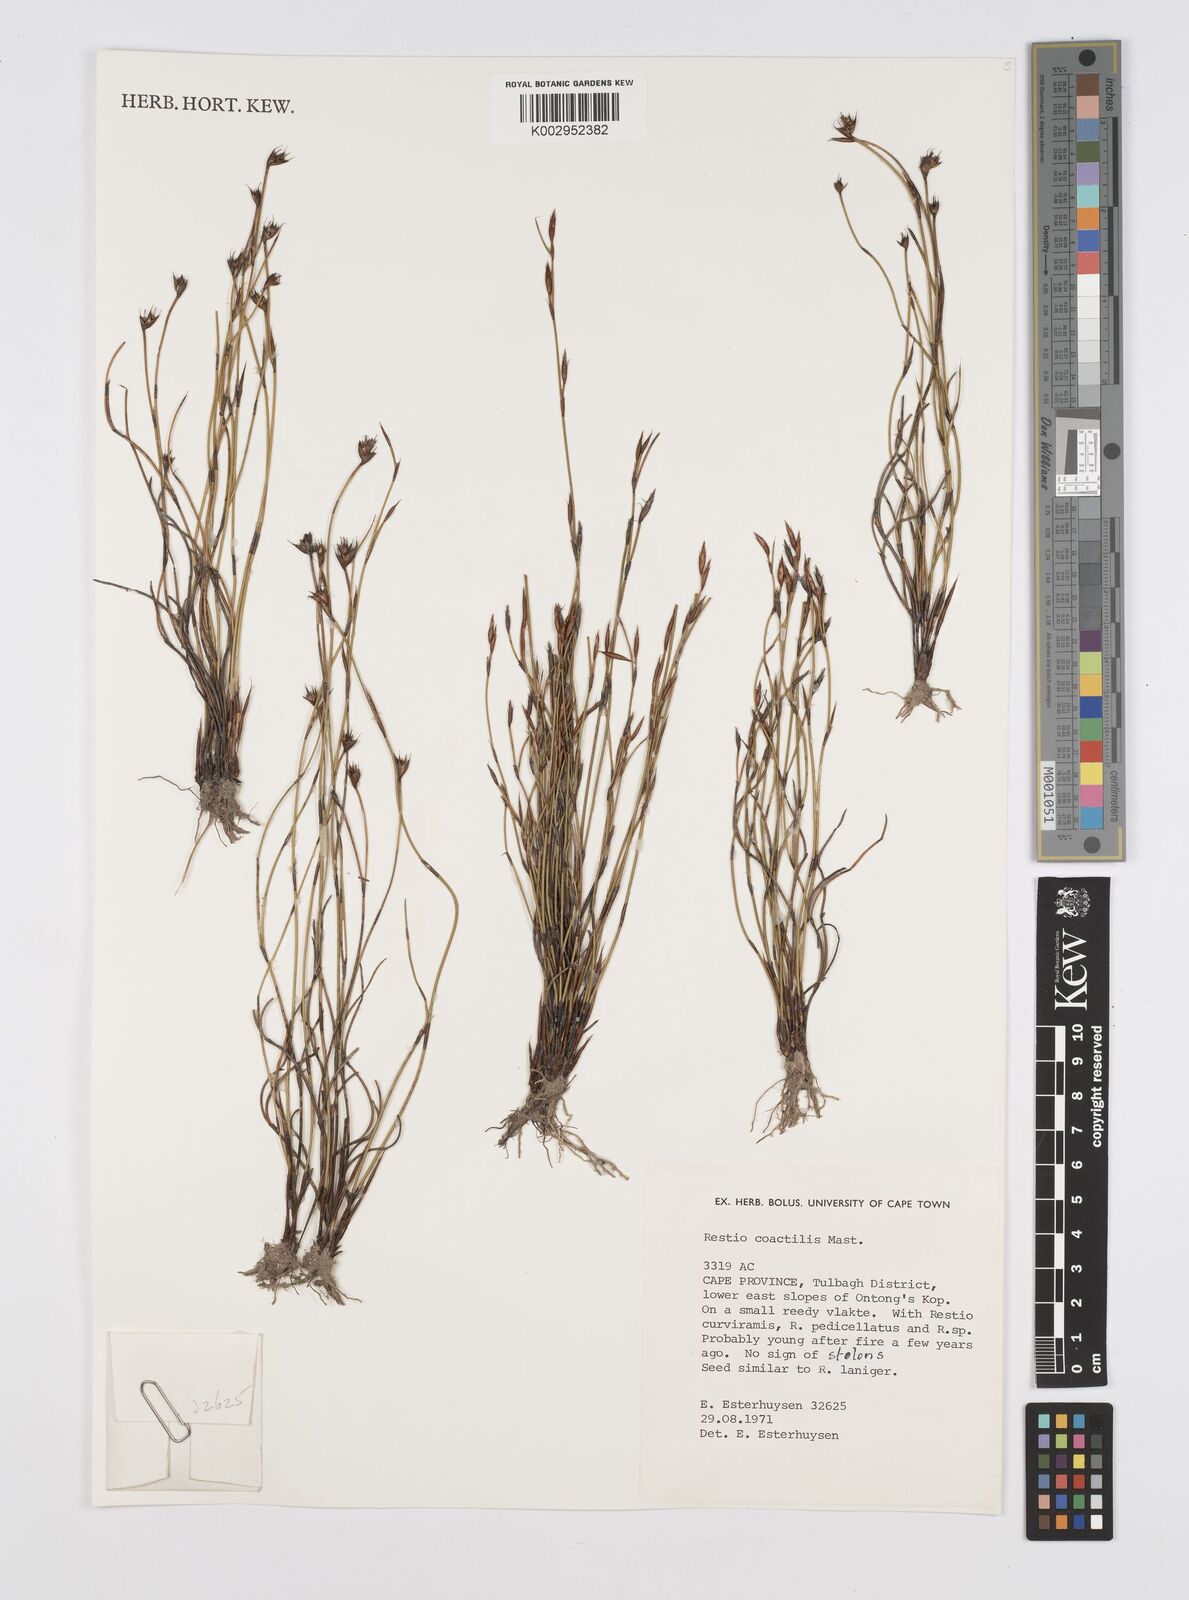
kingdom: Plantae
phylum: Tracheophyta
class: Liliopsida
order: Poales
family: Restionaceae
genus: Restio
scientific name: Restio coactilis
